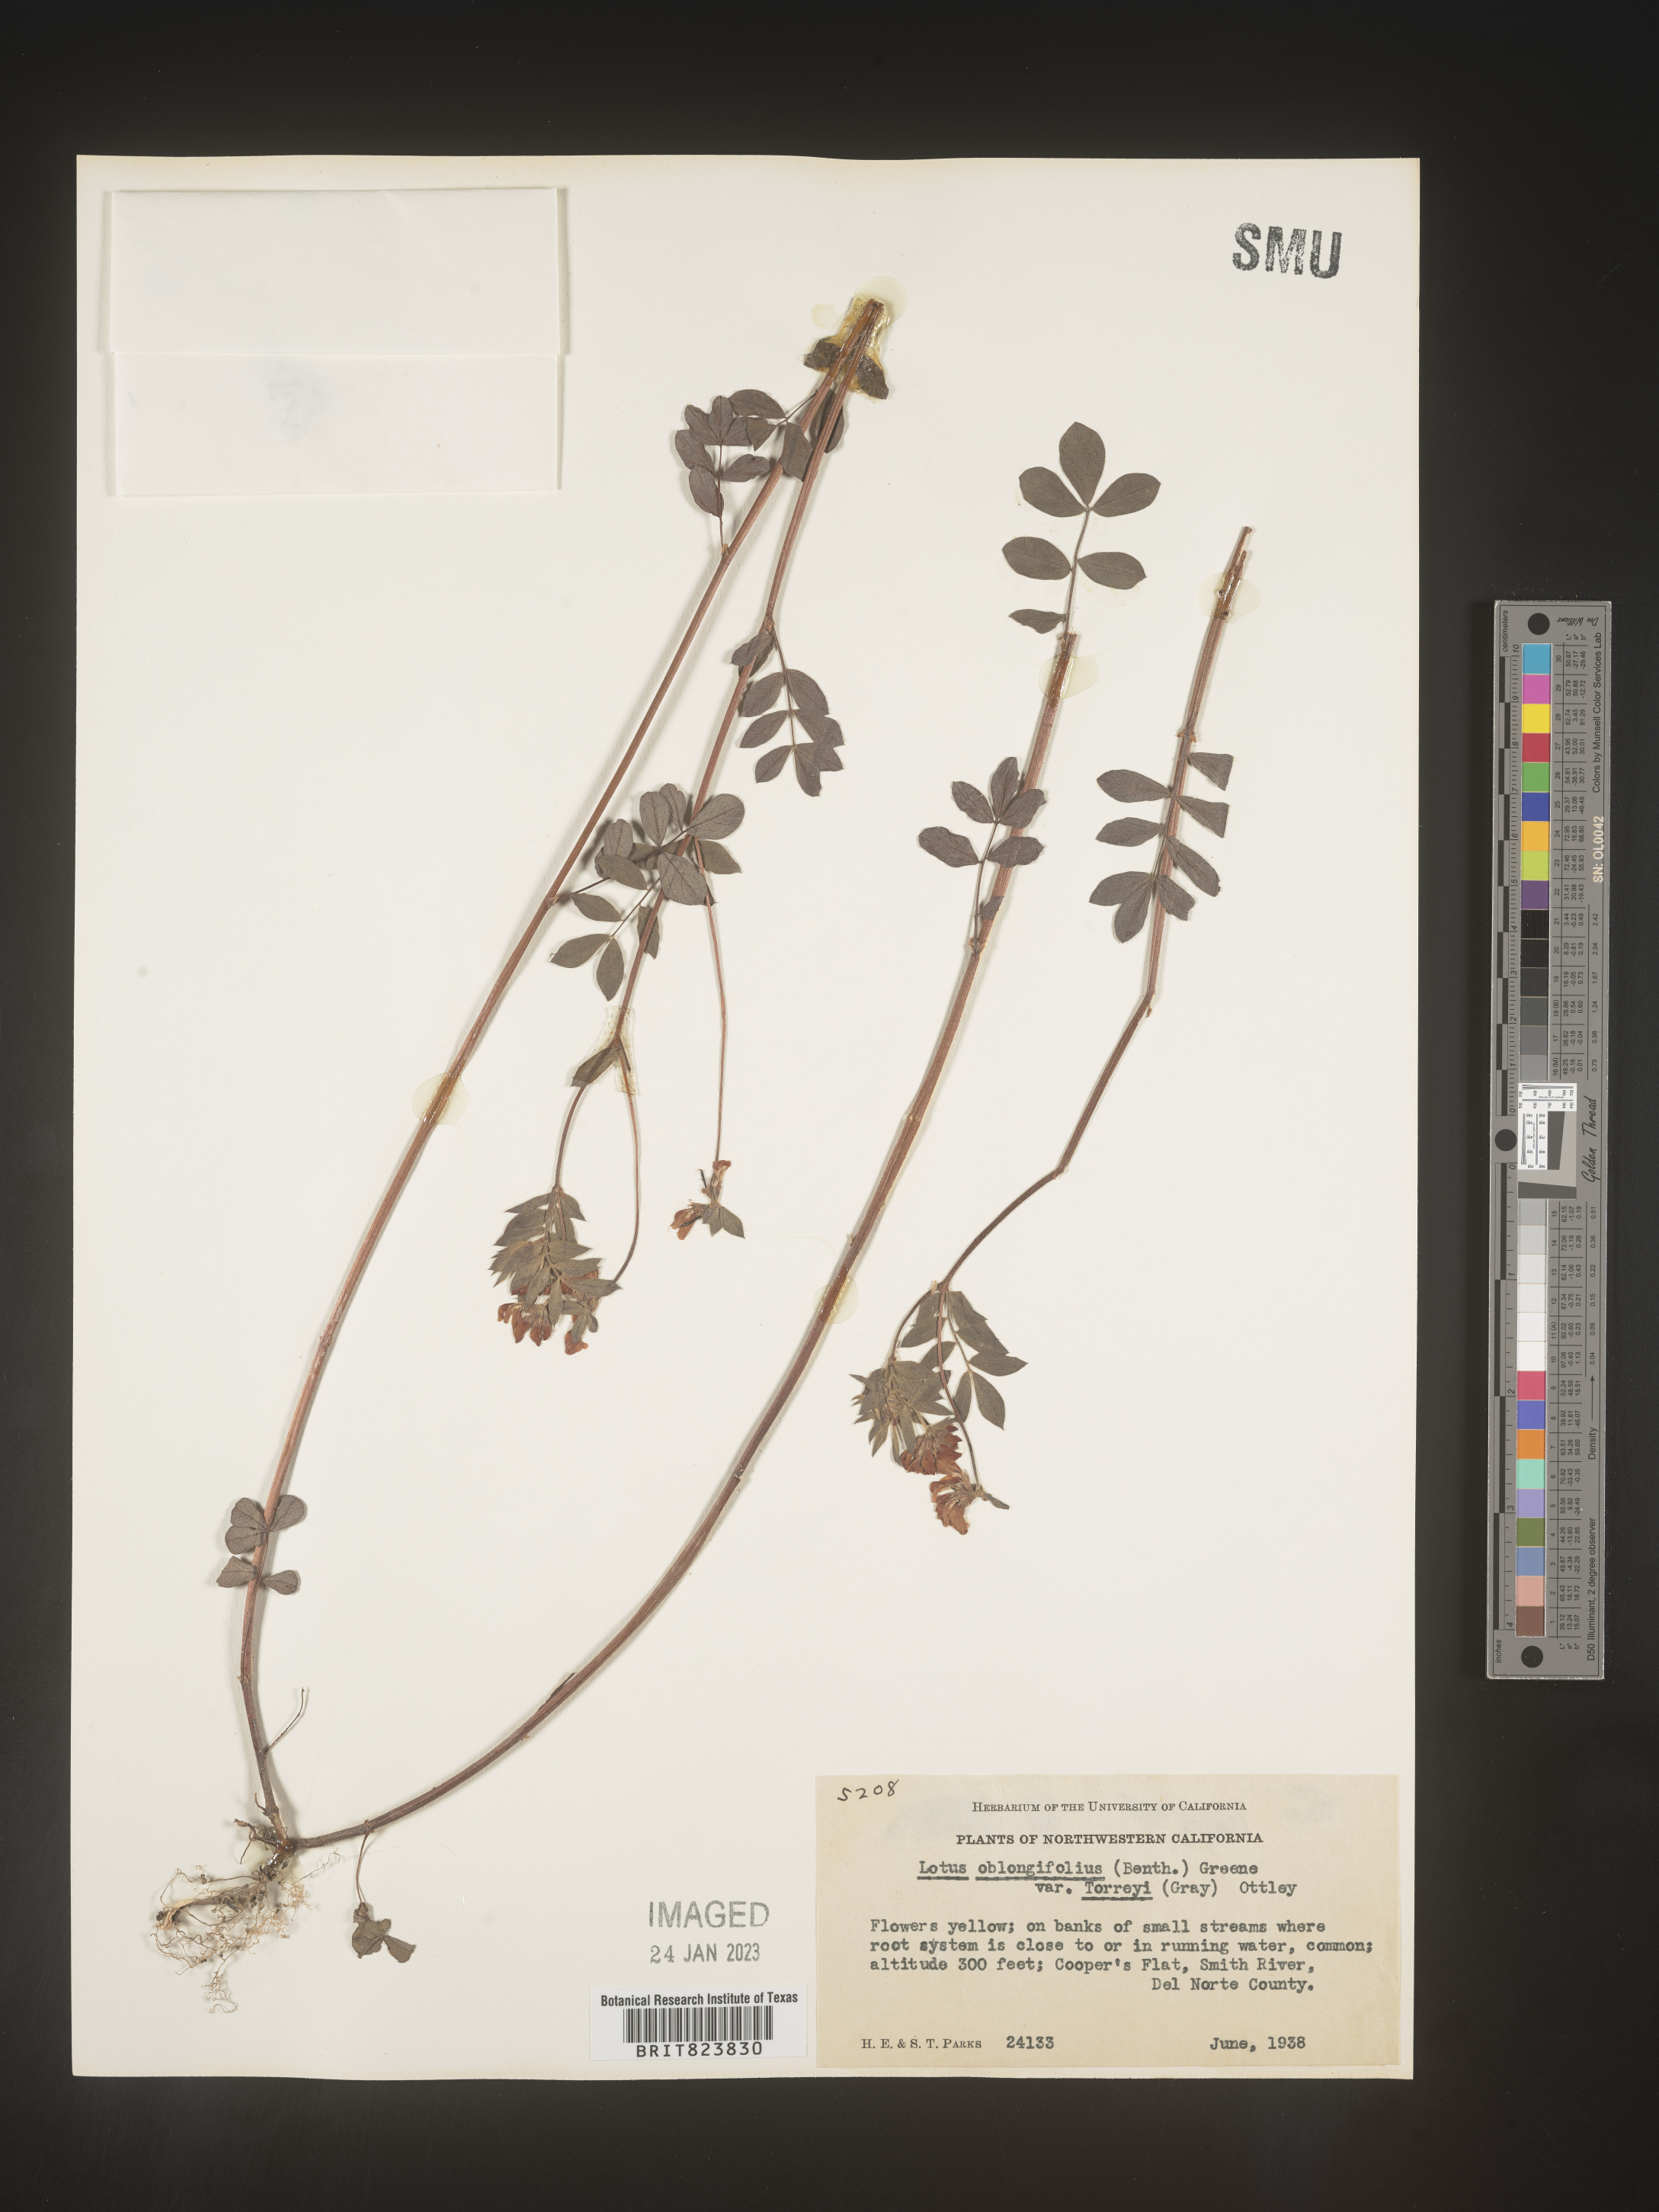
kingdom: Plantae
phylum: Tracheophyta
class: Magnoliopsida
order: Fabales
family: Fabaceae
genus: Hosackia
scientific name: Hosackia oblongifolia
